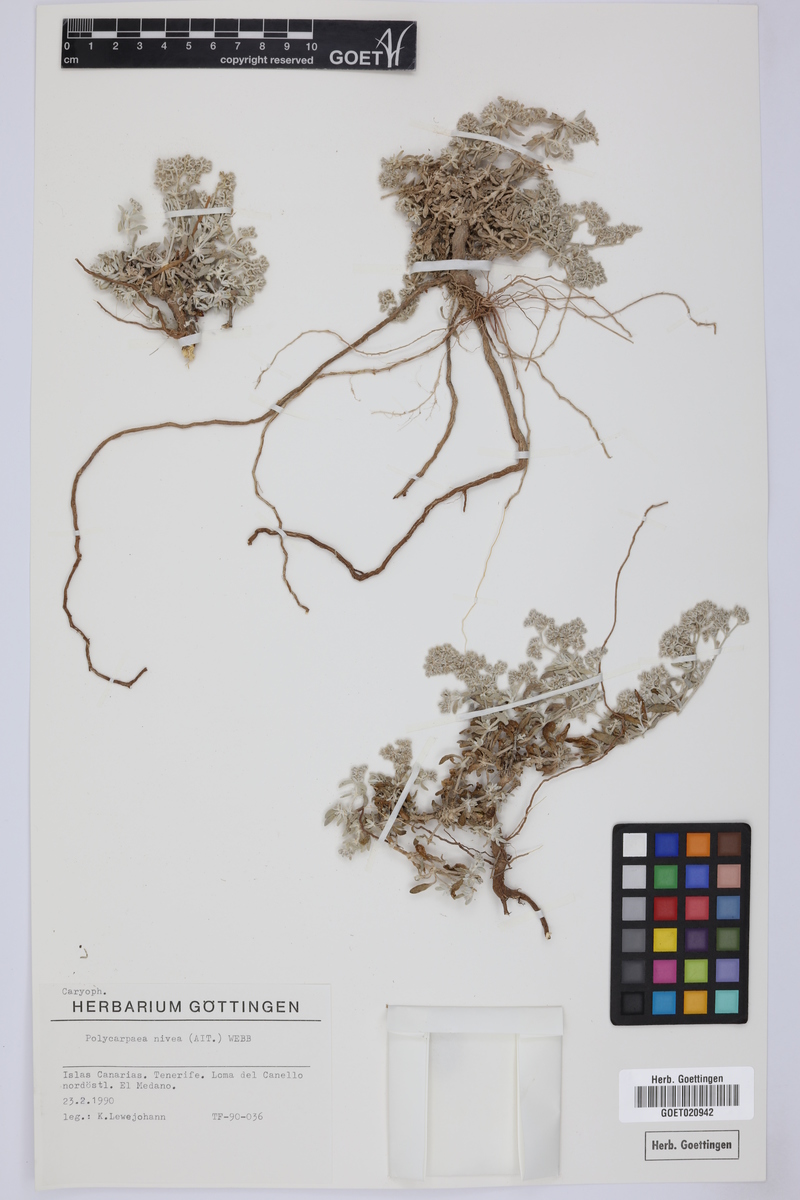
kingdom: Plantae
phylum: Tracheophyta
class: Magnoliopsida
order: Caryophyllales
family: Caryophyllaceae
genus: Polycarpaea
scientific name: Polycarpaea nivea
